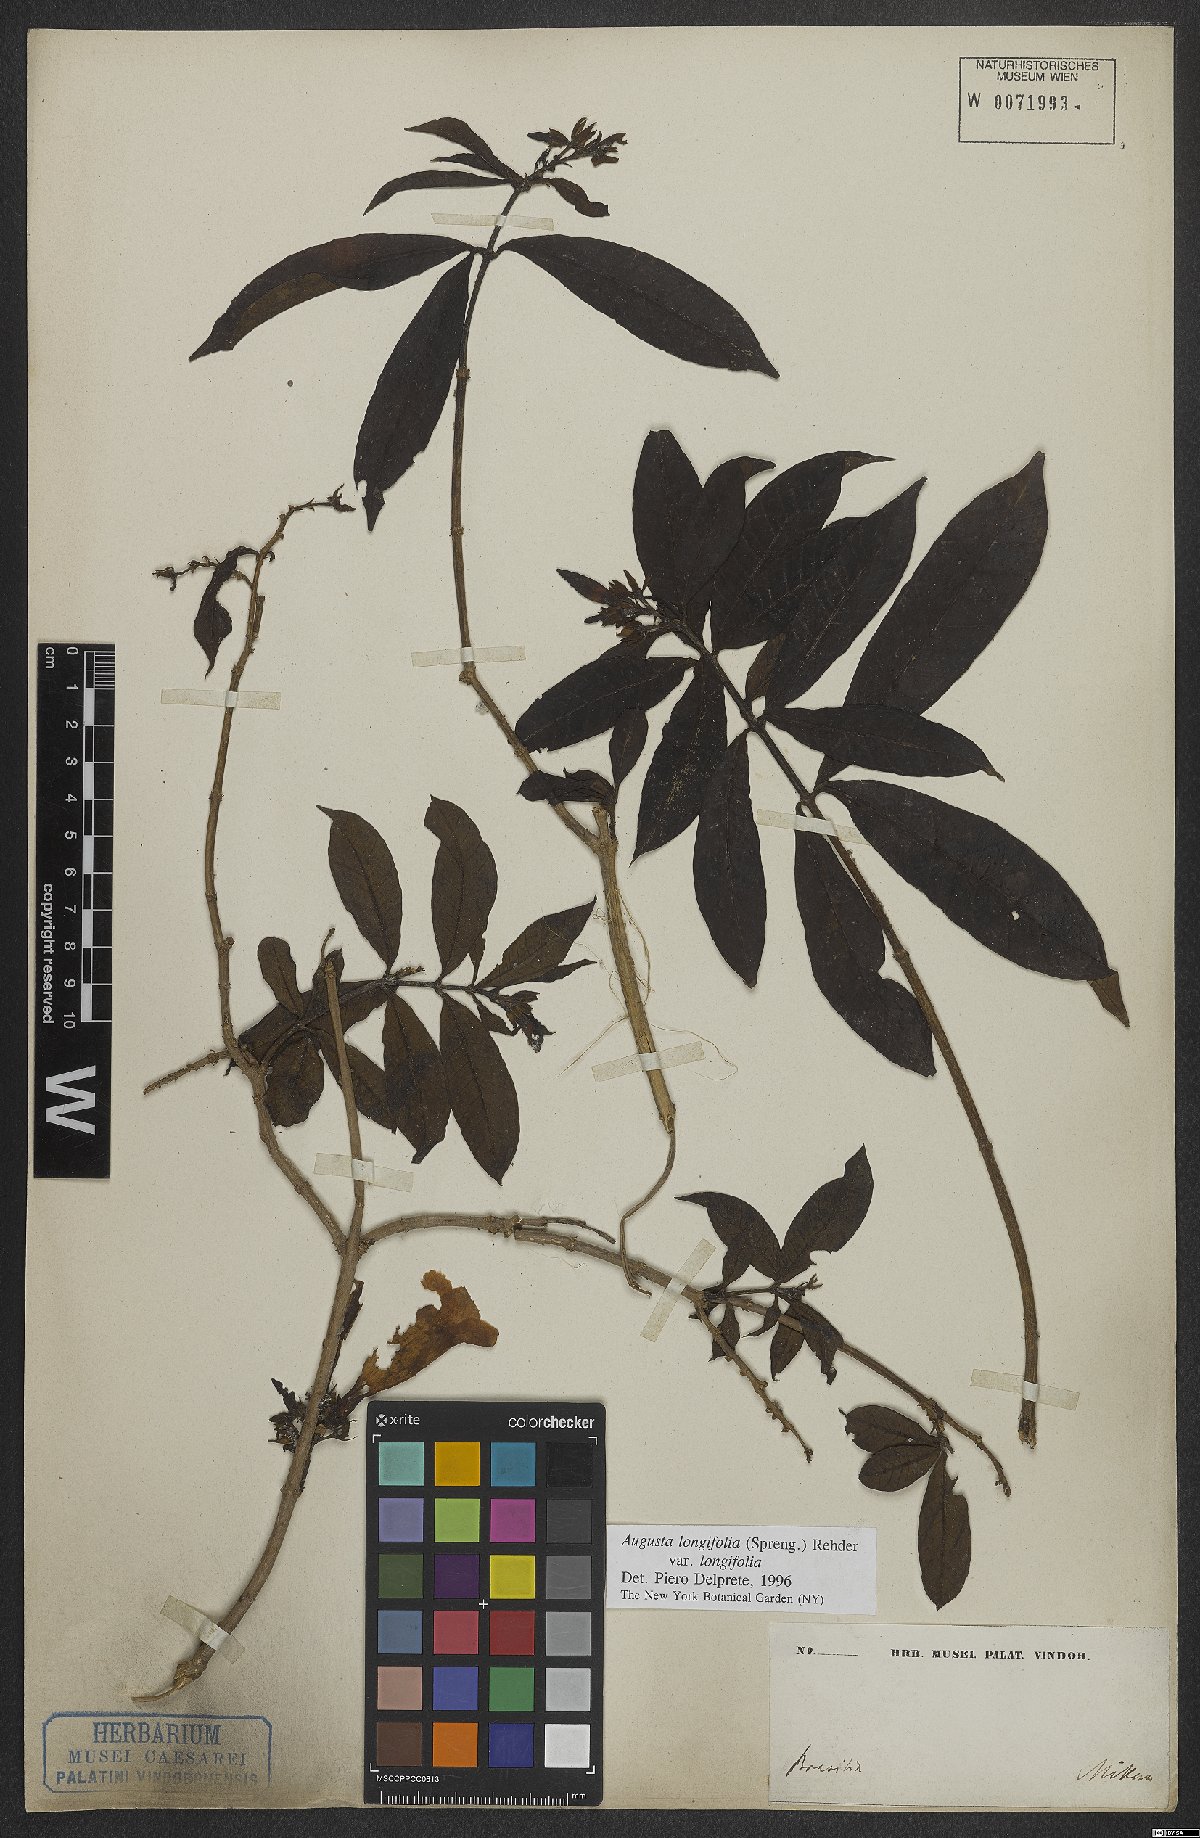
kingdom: Plantae
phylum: Tracheophyta
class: Magnoliopsida
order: Gentianales
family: Rubiaceae
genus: Augusta
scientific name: Augusta longifolia
